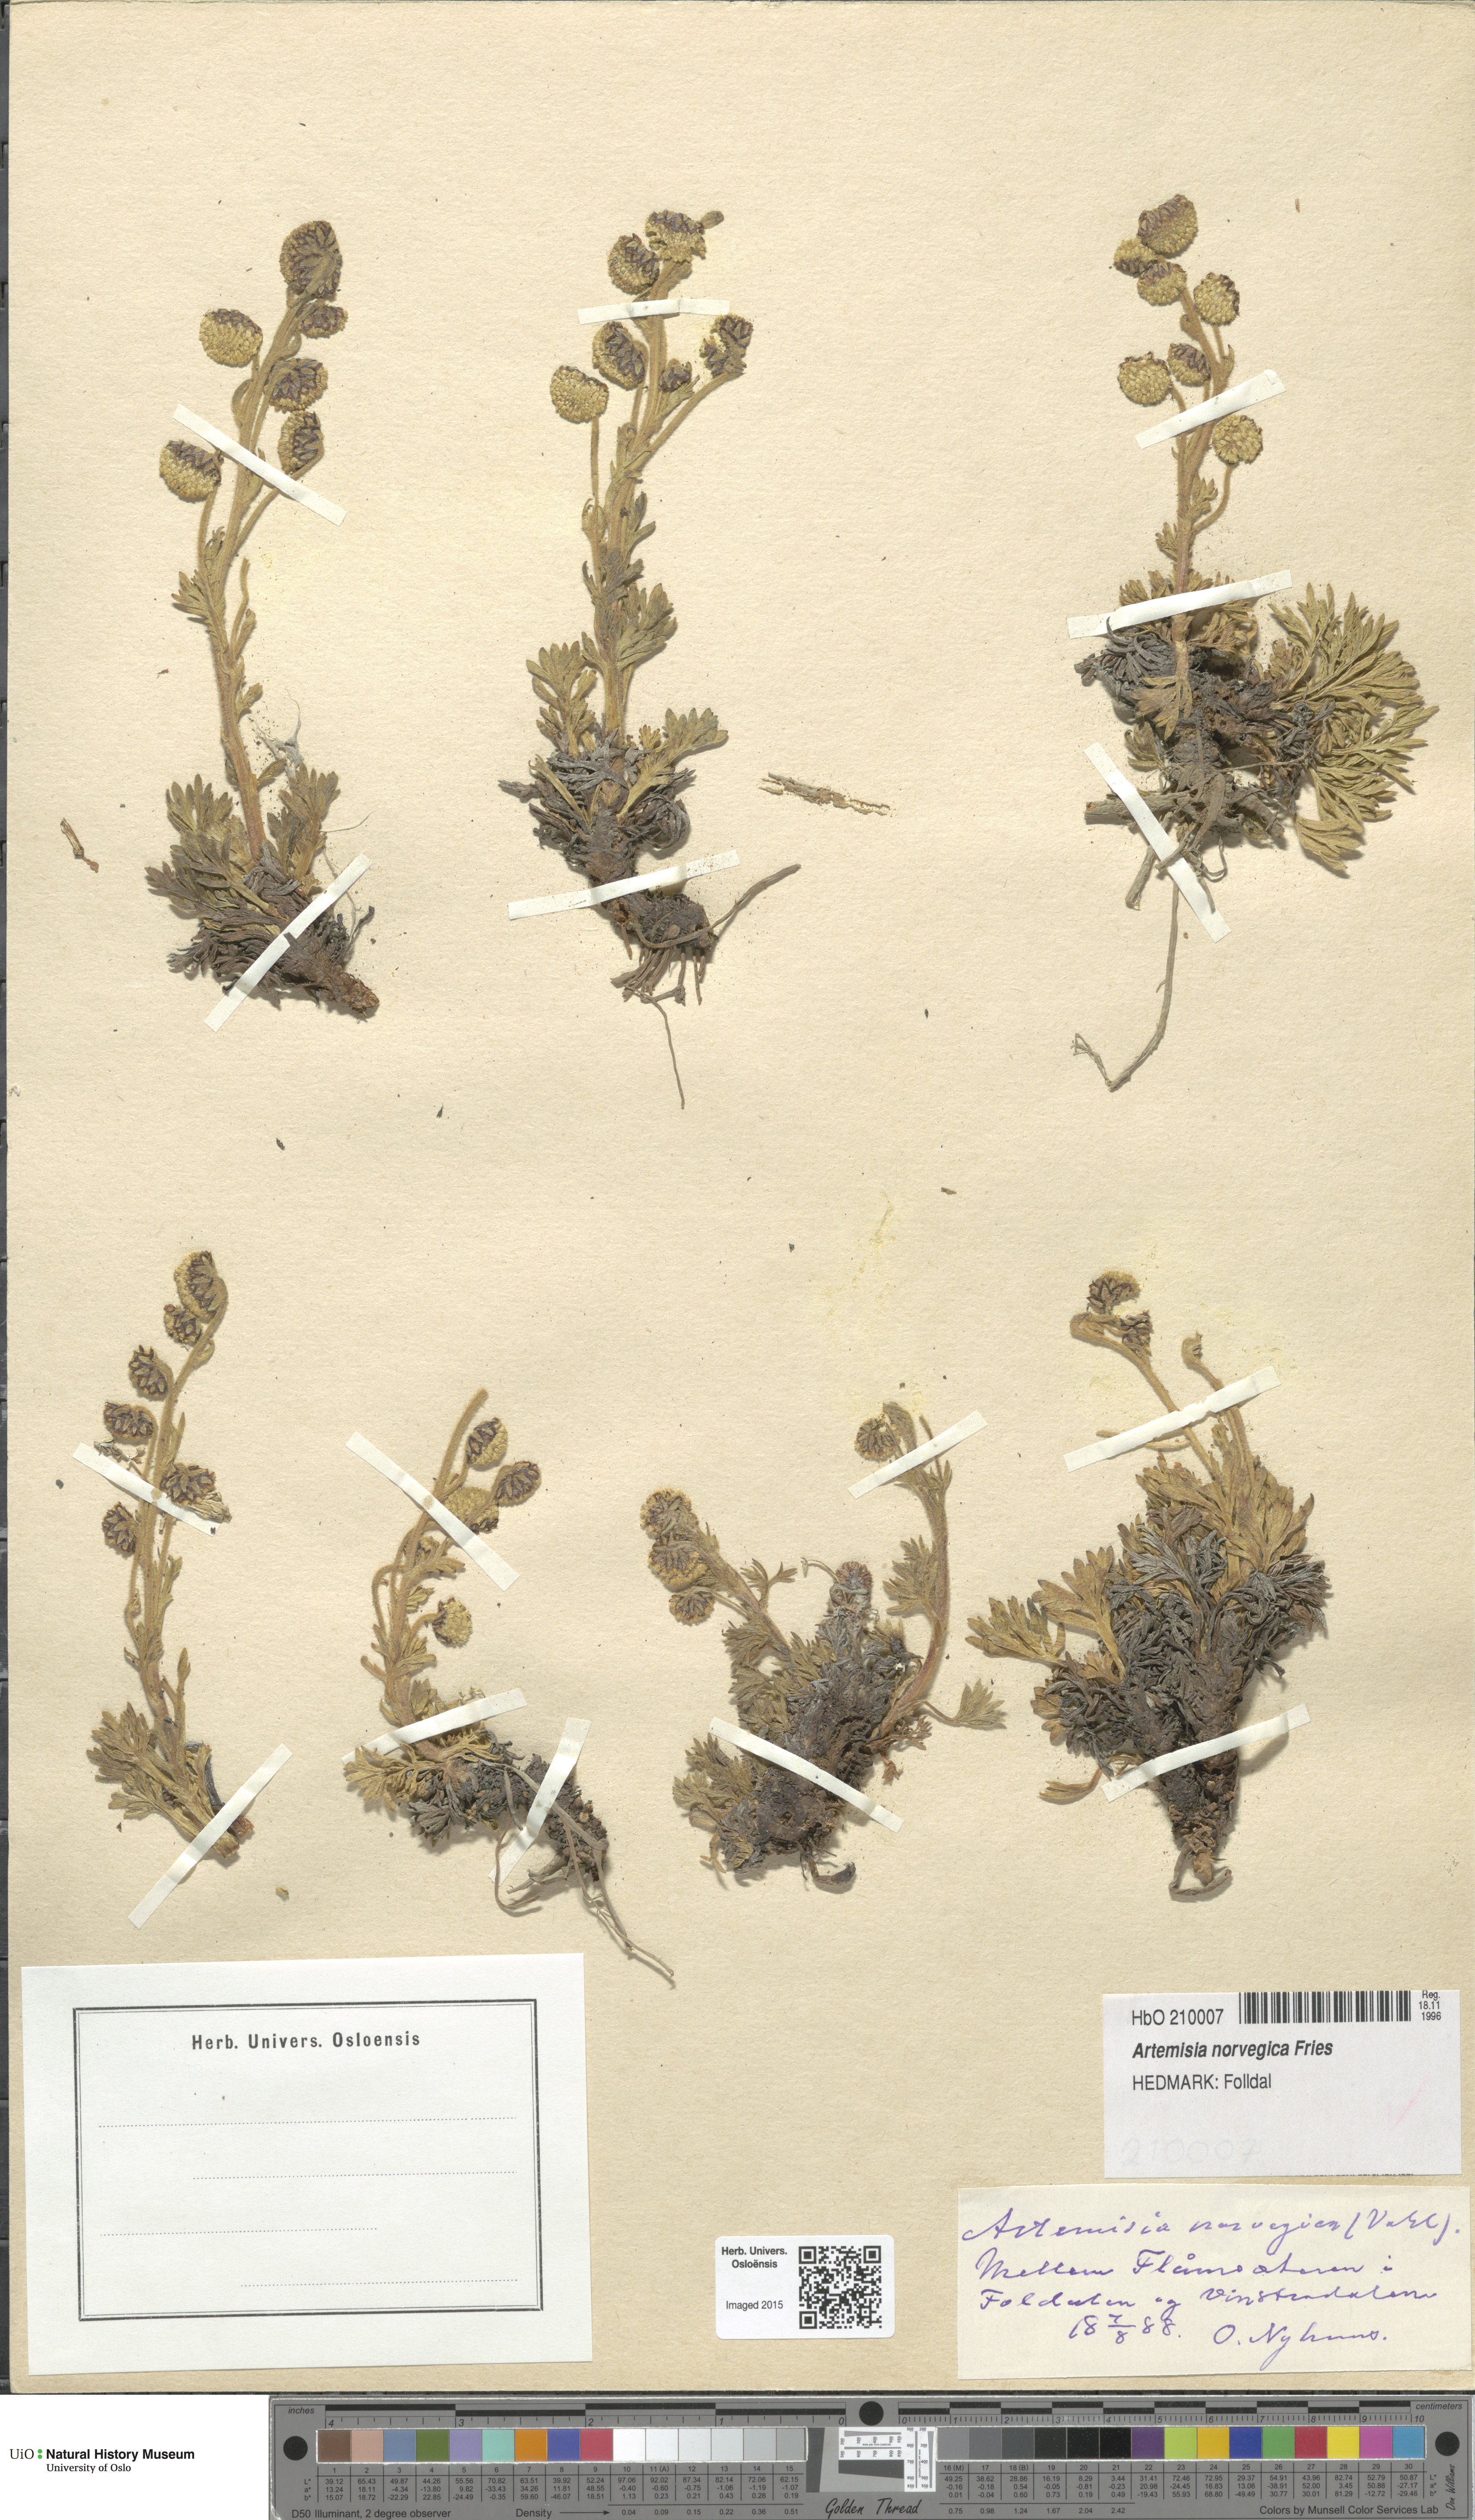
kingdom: Plantae
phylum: Tracheophyta
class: Magnoliopsida
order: Asterales
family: Asteraceae
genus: Artemisia
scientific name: Artemisia norvegica
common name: Norwegian mugwort
